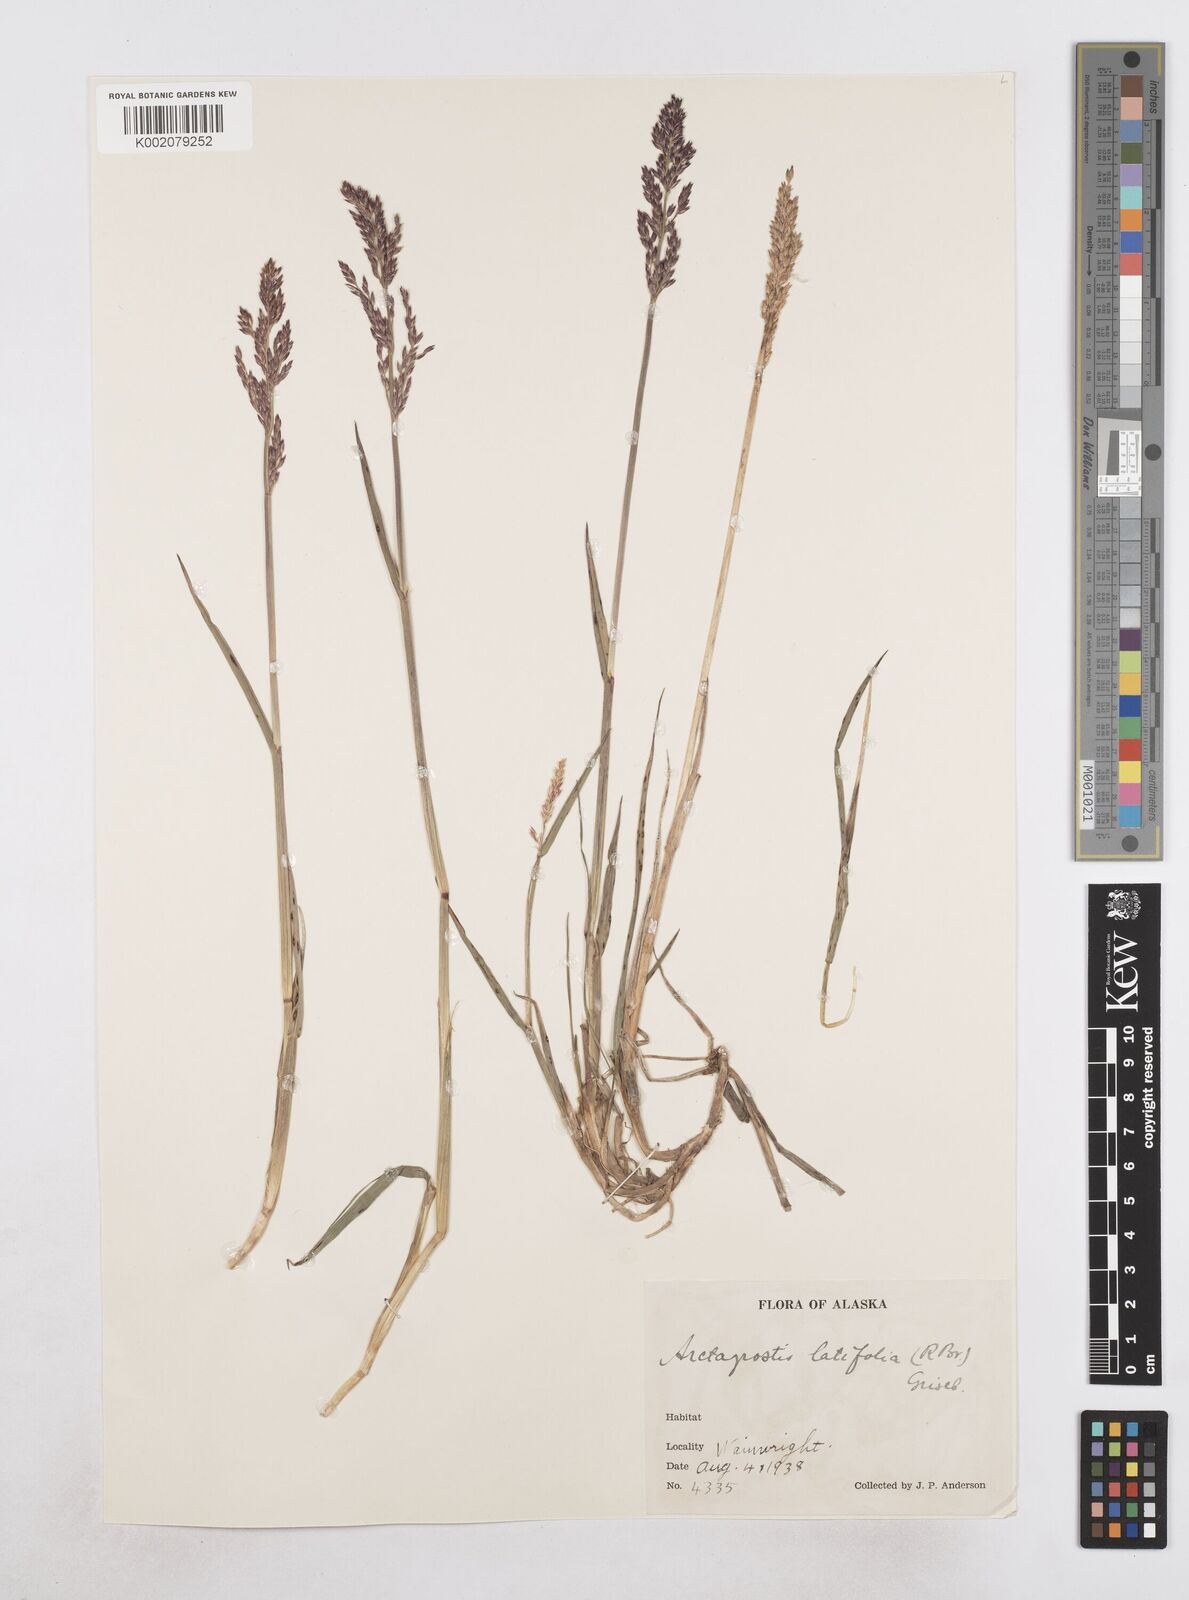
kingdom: Plantae
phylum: Tracheophyta
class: Liliopsida
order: Poales
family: Poaceae
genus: Arctagrostis
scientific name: Arctagrostis latifolia
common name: Arctic grass
